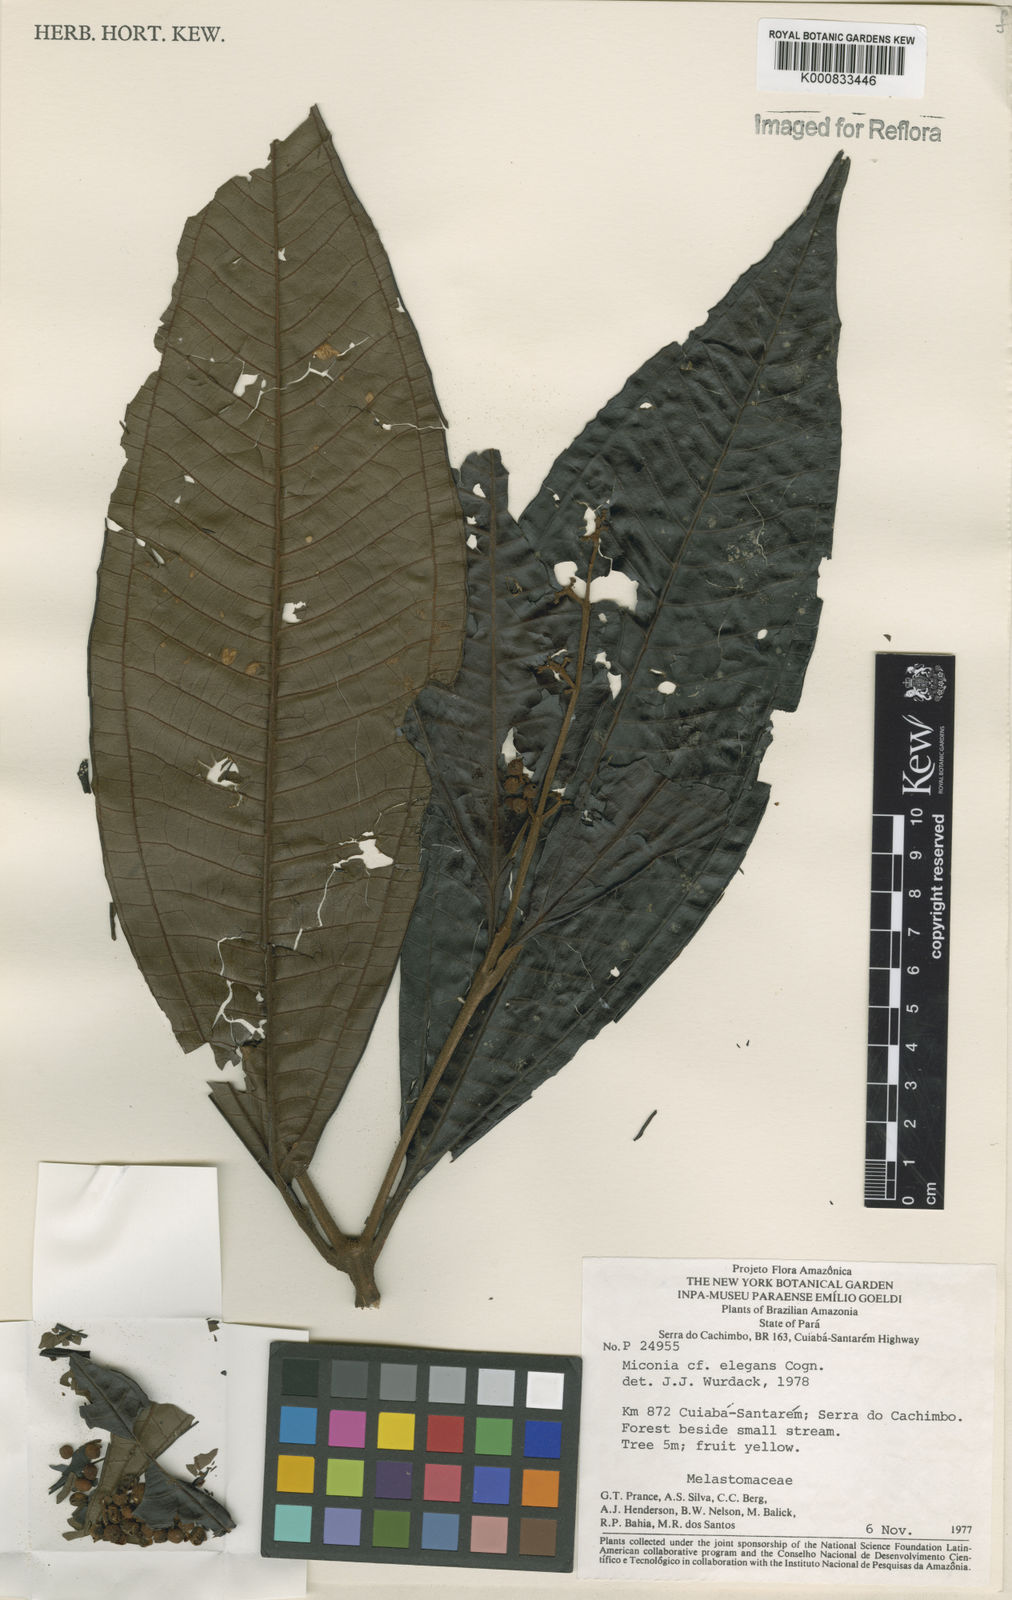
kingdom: Plantae
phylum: Tracheophyta
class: Magnoliopsida
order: Myrtales
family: Melastomataceae
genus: Miconia
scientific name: Miconia elegans
